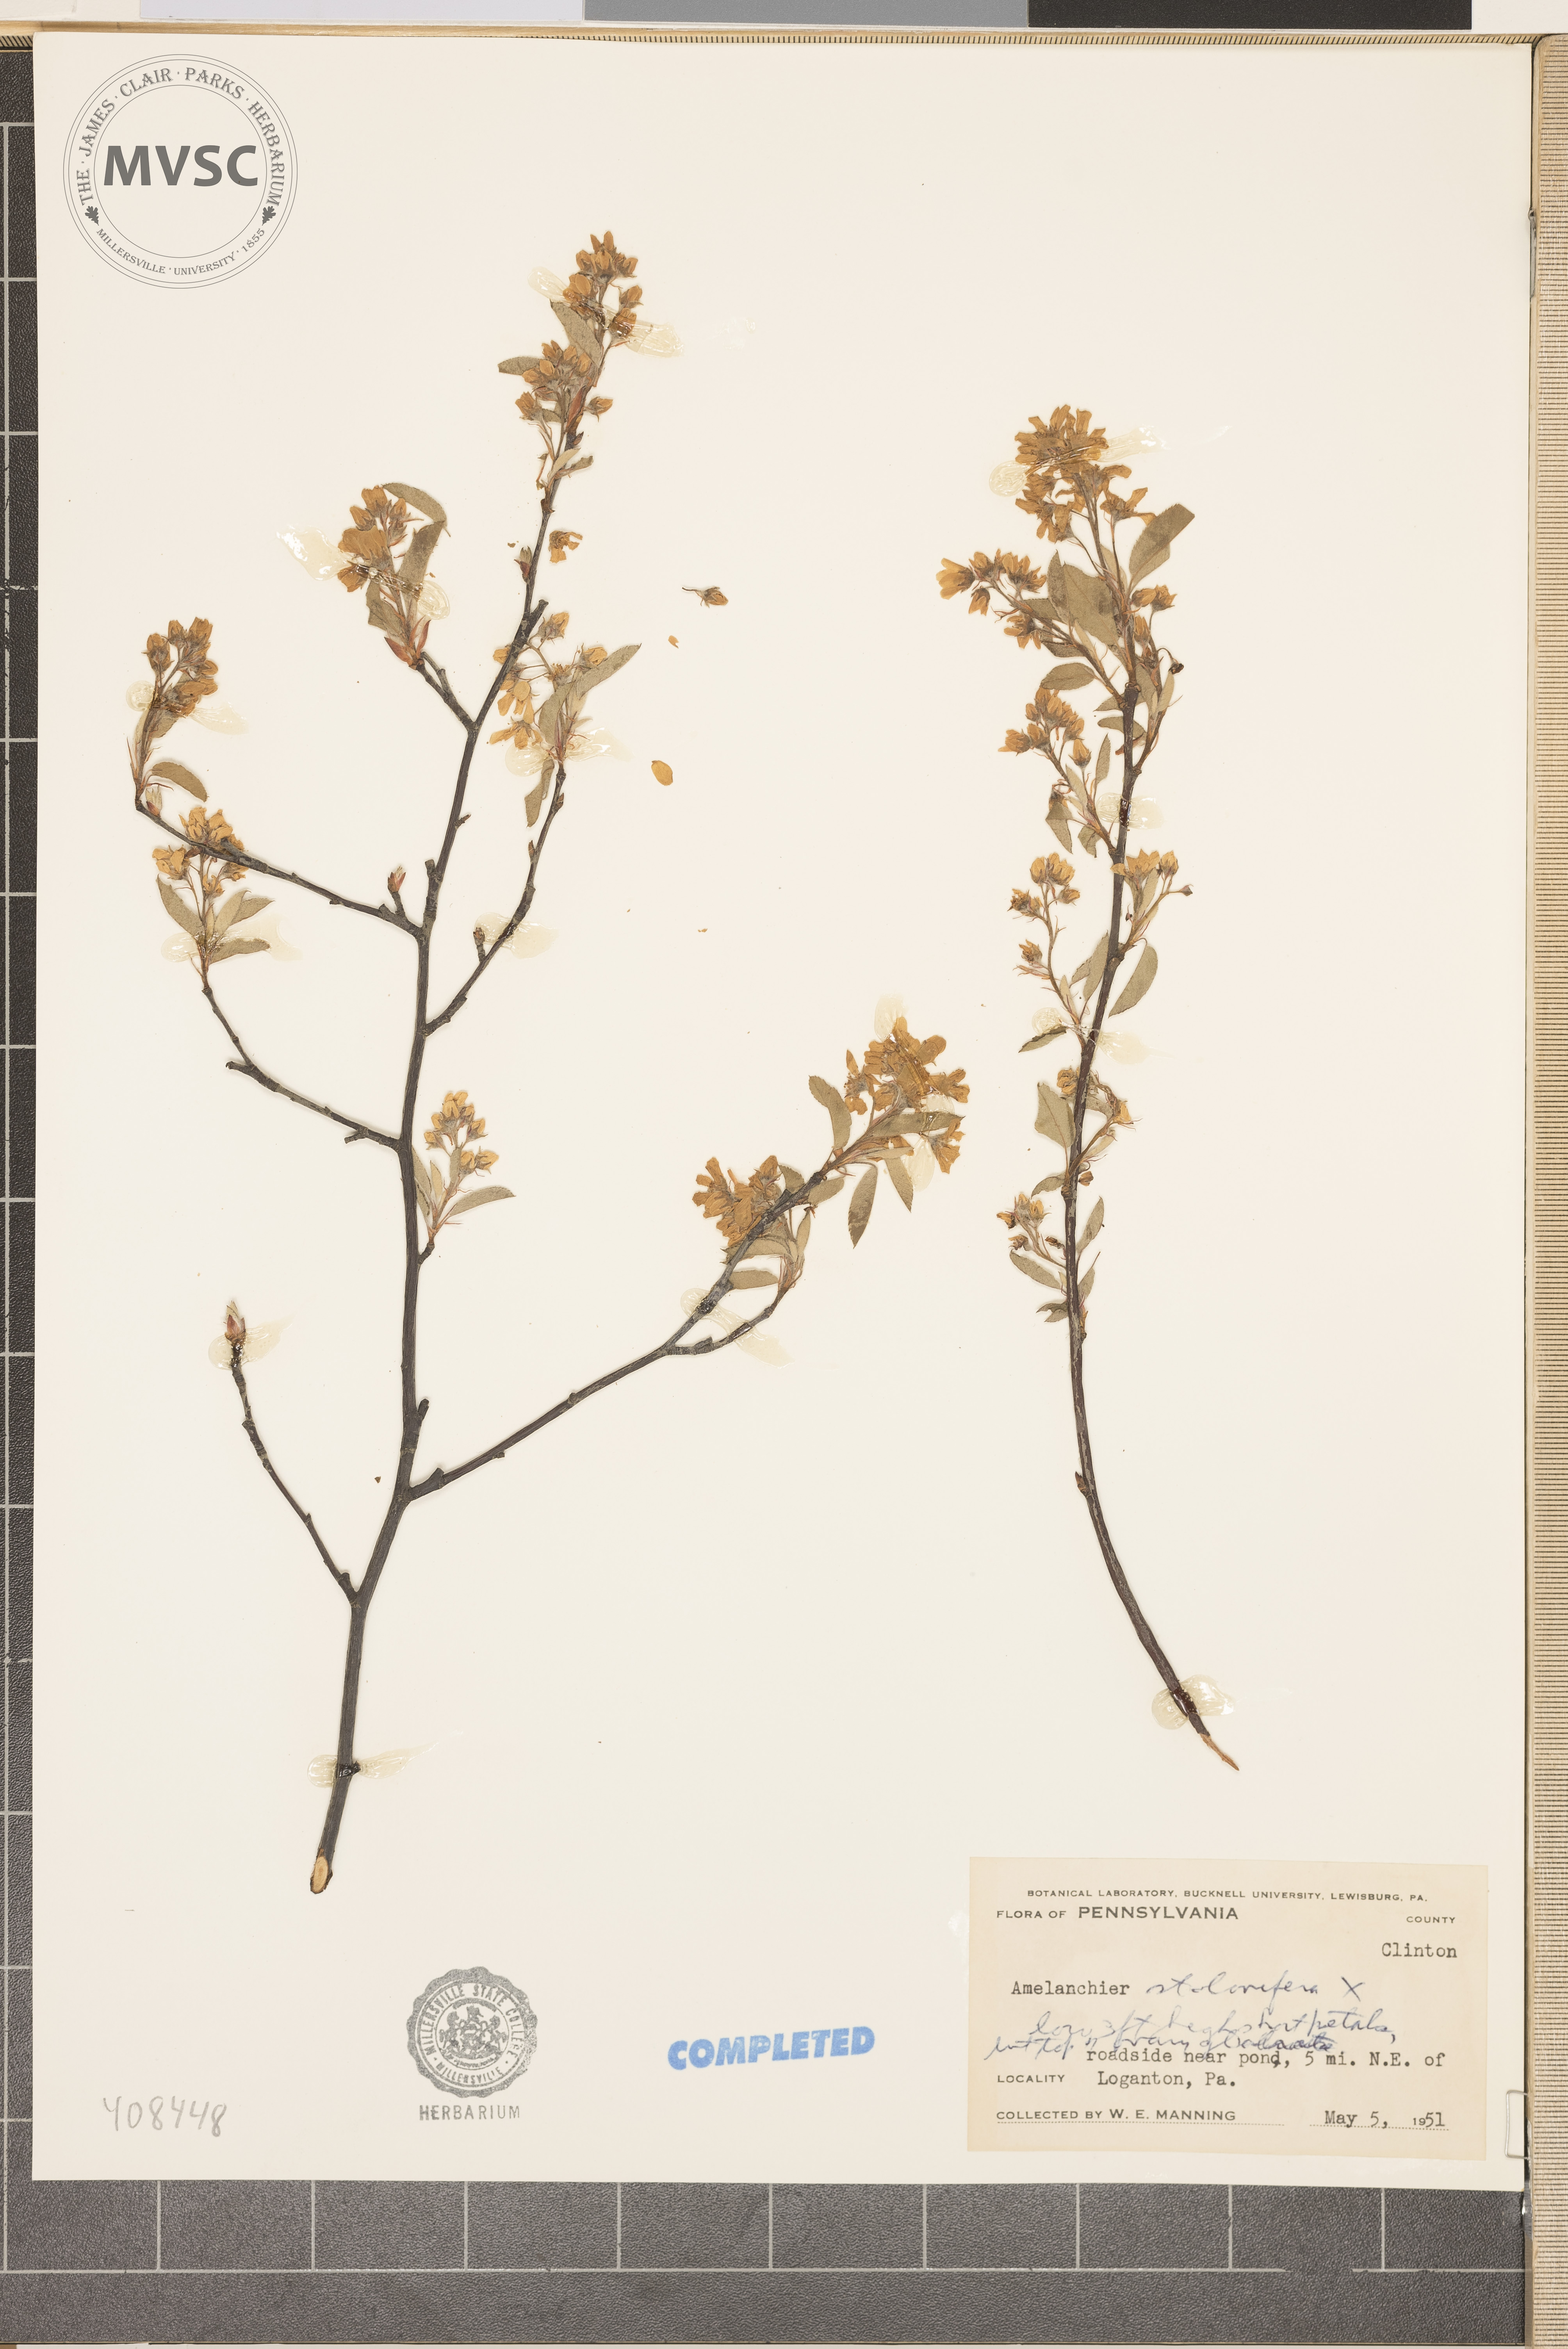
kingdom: Plantae
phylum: Tracheophyta
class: Magnoliopsida
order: Rosales
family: Rosaceae
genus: Amelanchier
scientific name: Amelanchier stolonifera
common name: Running serviceberry
